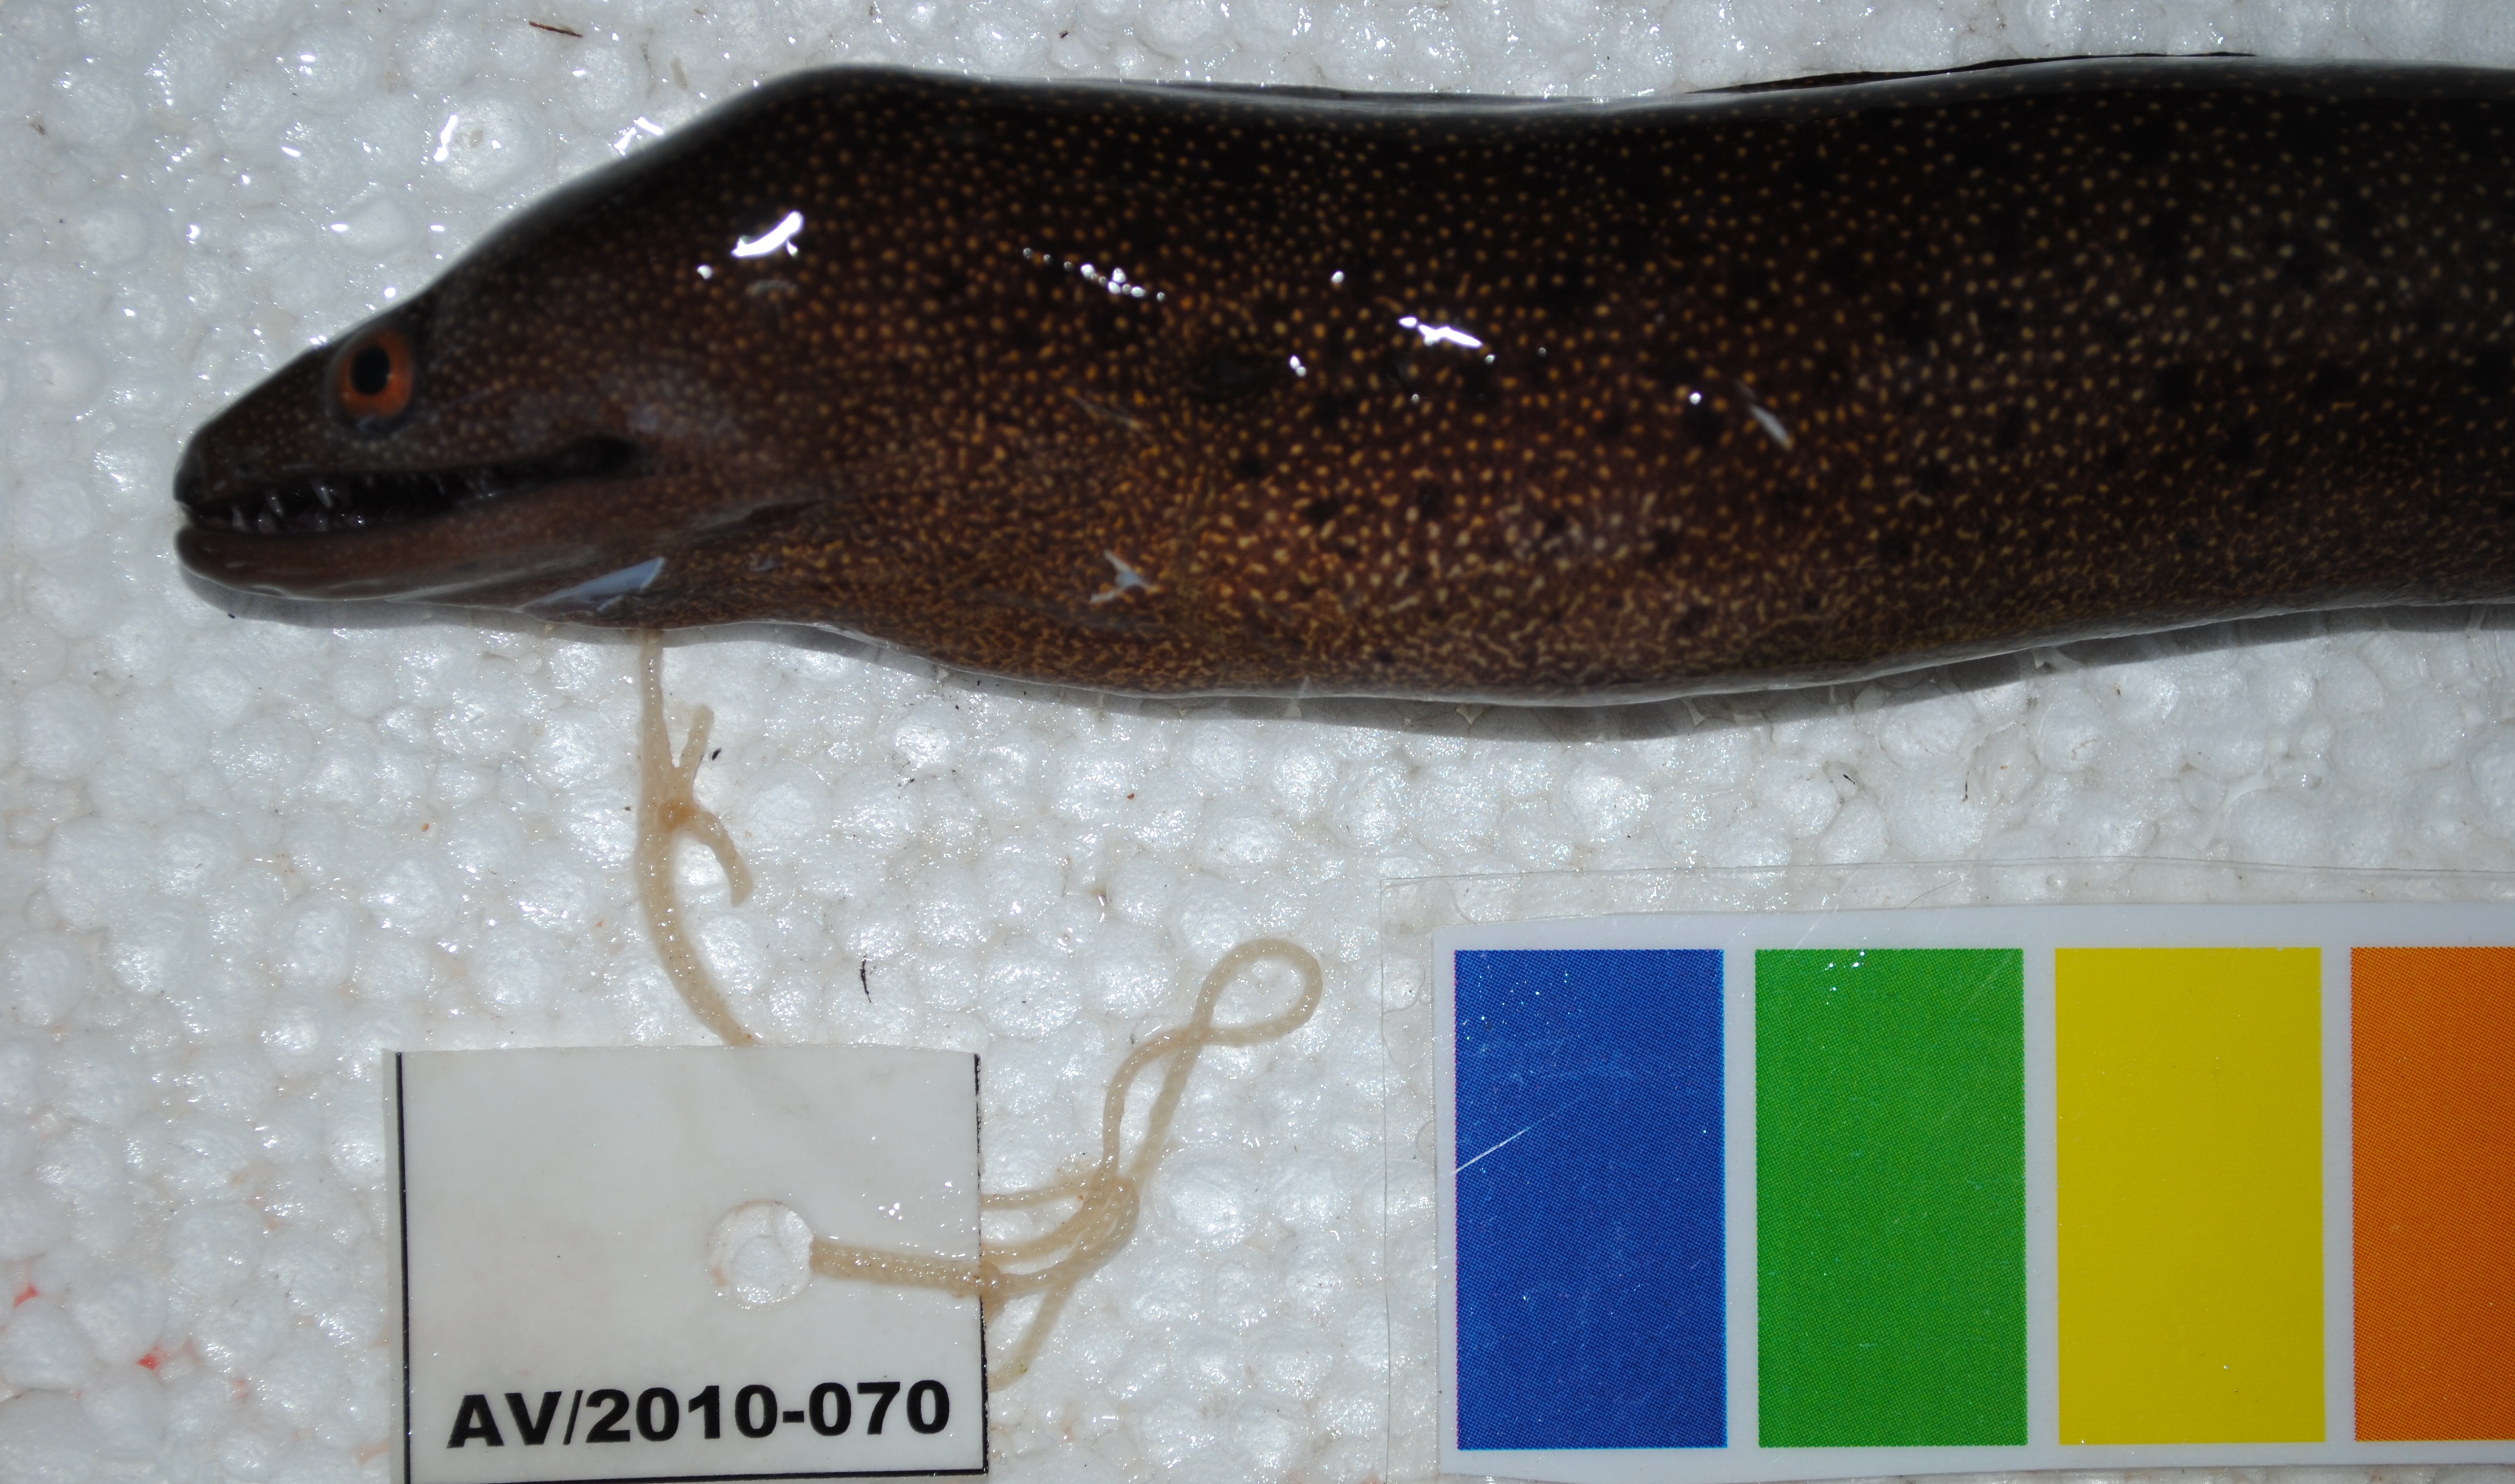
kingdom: Animalia
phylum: Chordata
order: Anguilliformes
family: Muraenidae
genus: Gymnothorax
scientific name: Gymnothorax eurostus
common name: Stout moray
